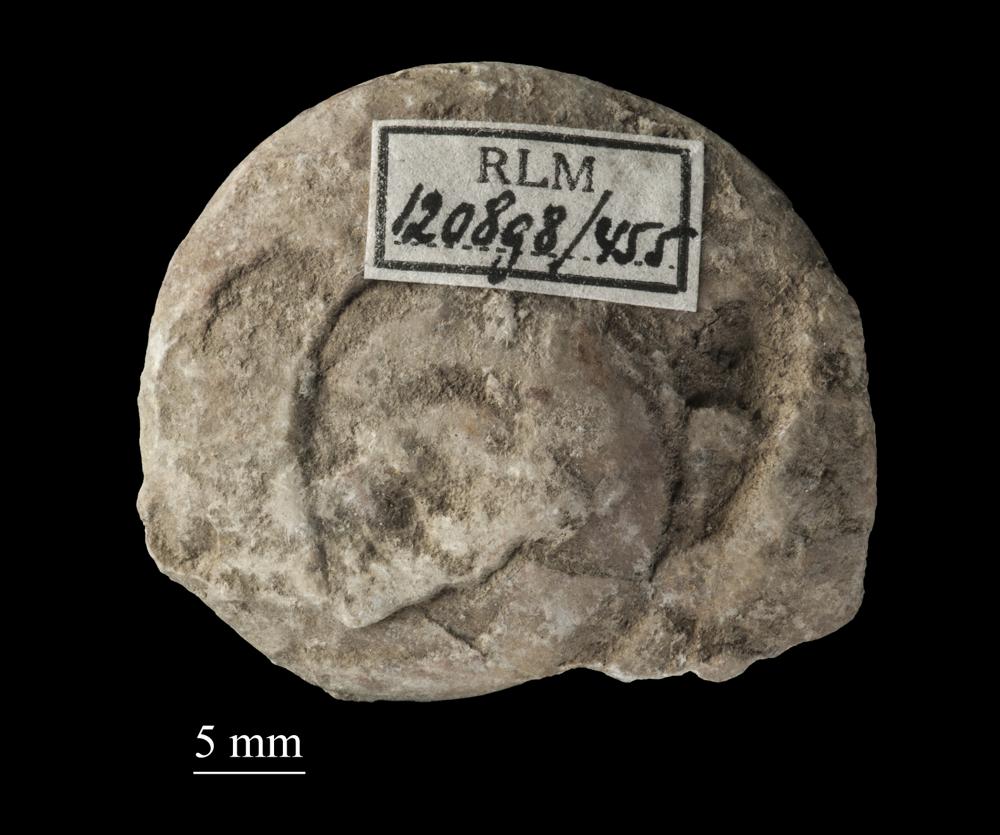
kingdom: Animalia
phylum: Mollusca
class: Gastropoda
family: Euomphalidae
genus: Euomphalus
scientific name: Euomphalus
